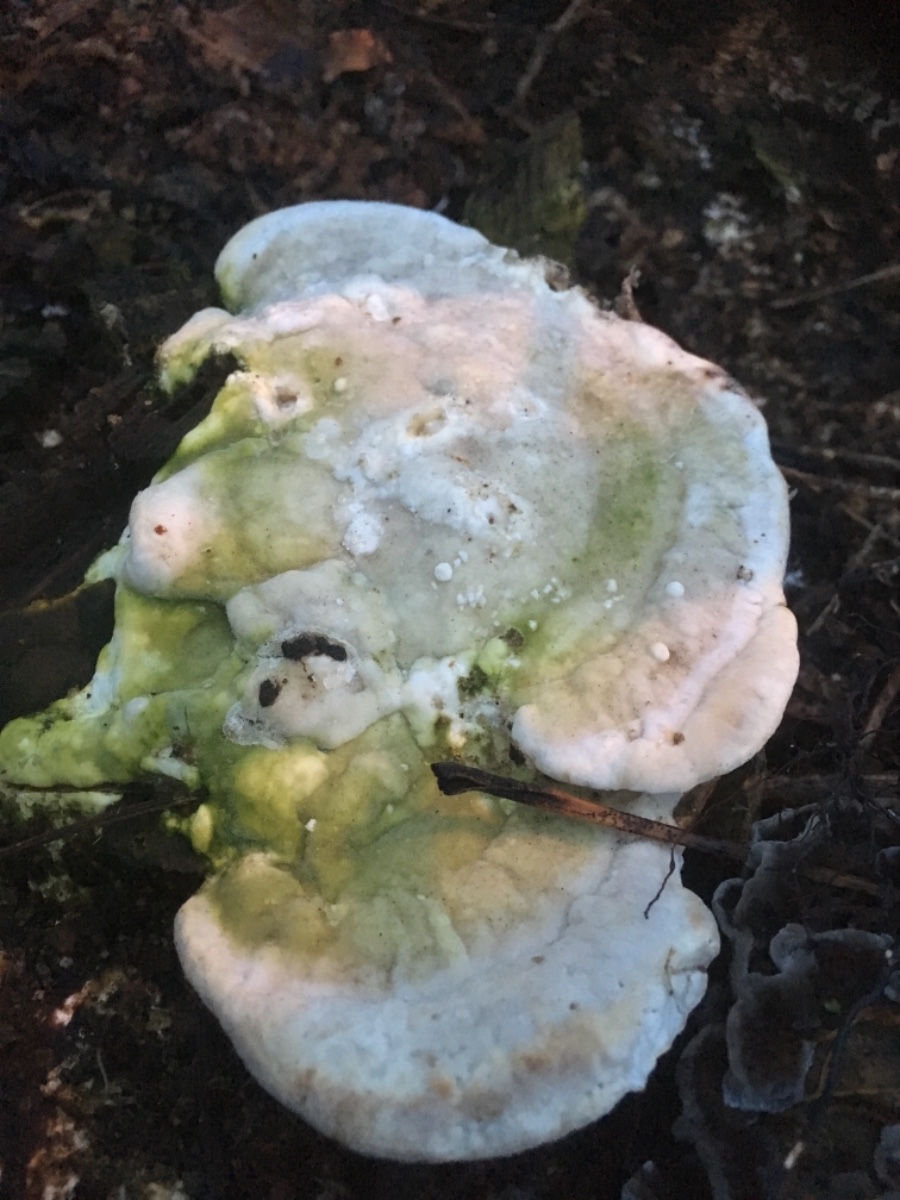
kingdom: Fungi
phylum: Basidiomycota
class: Agaricomycetes
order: Polyporales
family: Polyporaceae
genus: Trametes
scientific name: Trametes gibbosa
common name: puklet læderporesvamp
